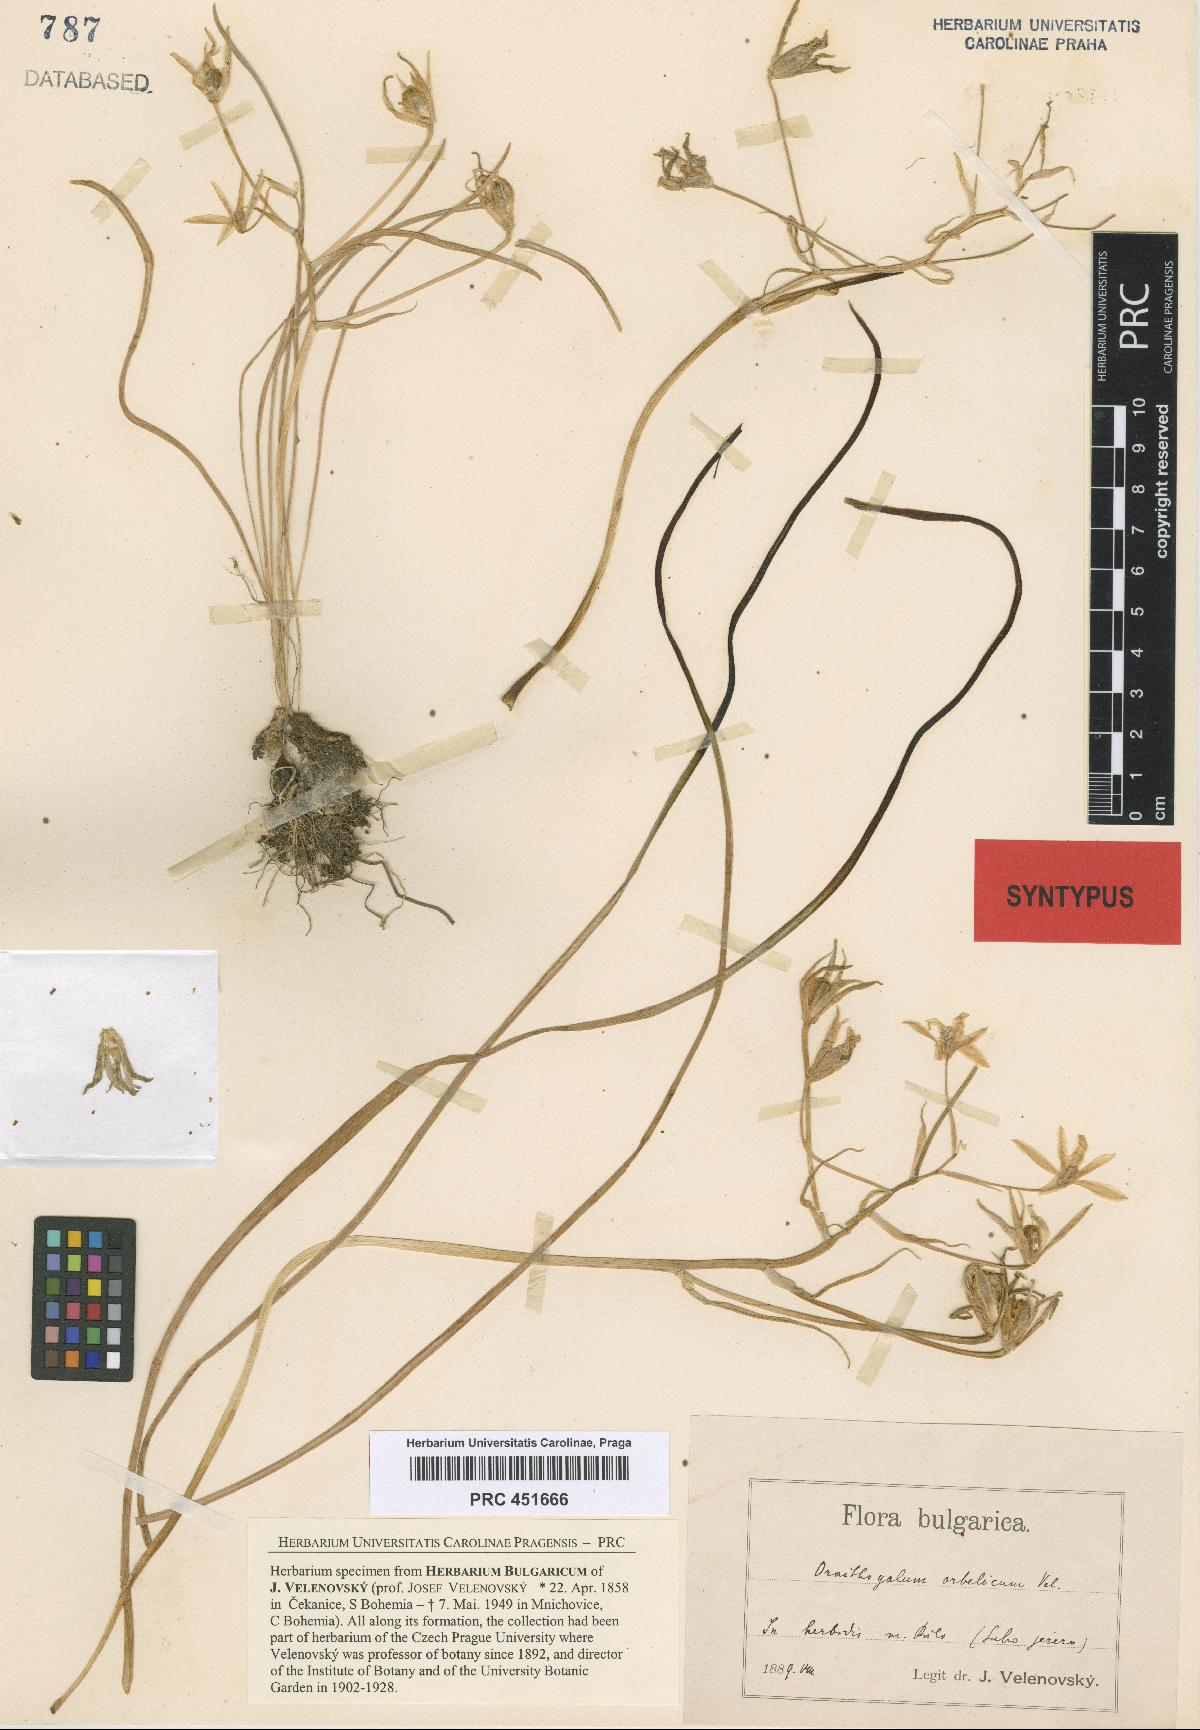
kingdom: Plantae
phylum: Tracheophyta
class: Liliopsida
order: Asparagales
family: Asparagaceae
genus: Ornithogalum
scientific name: Ornithogalum orthophyllum
